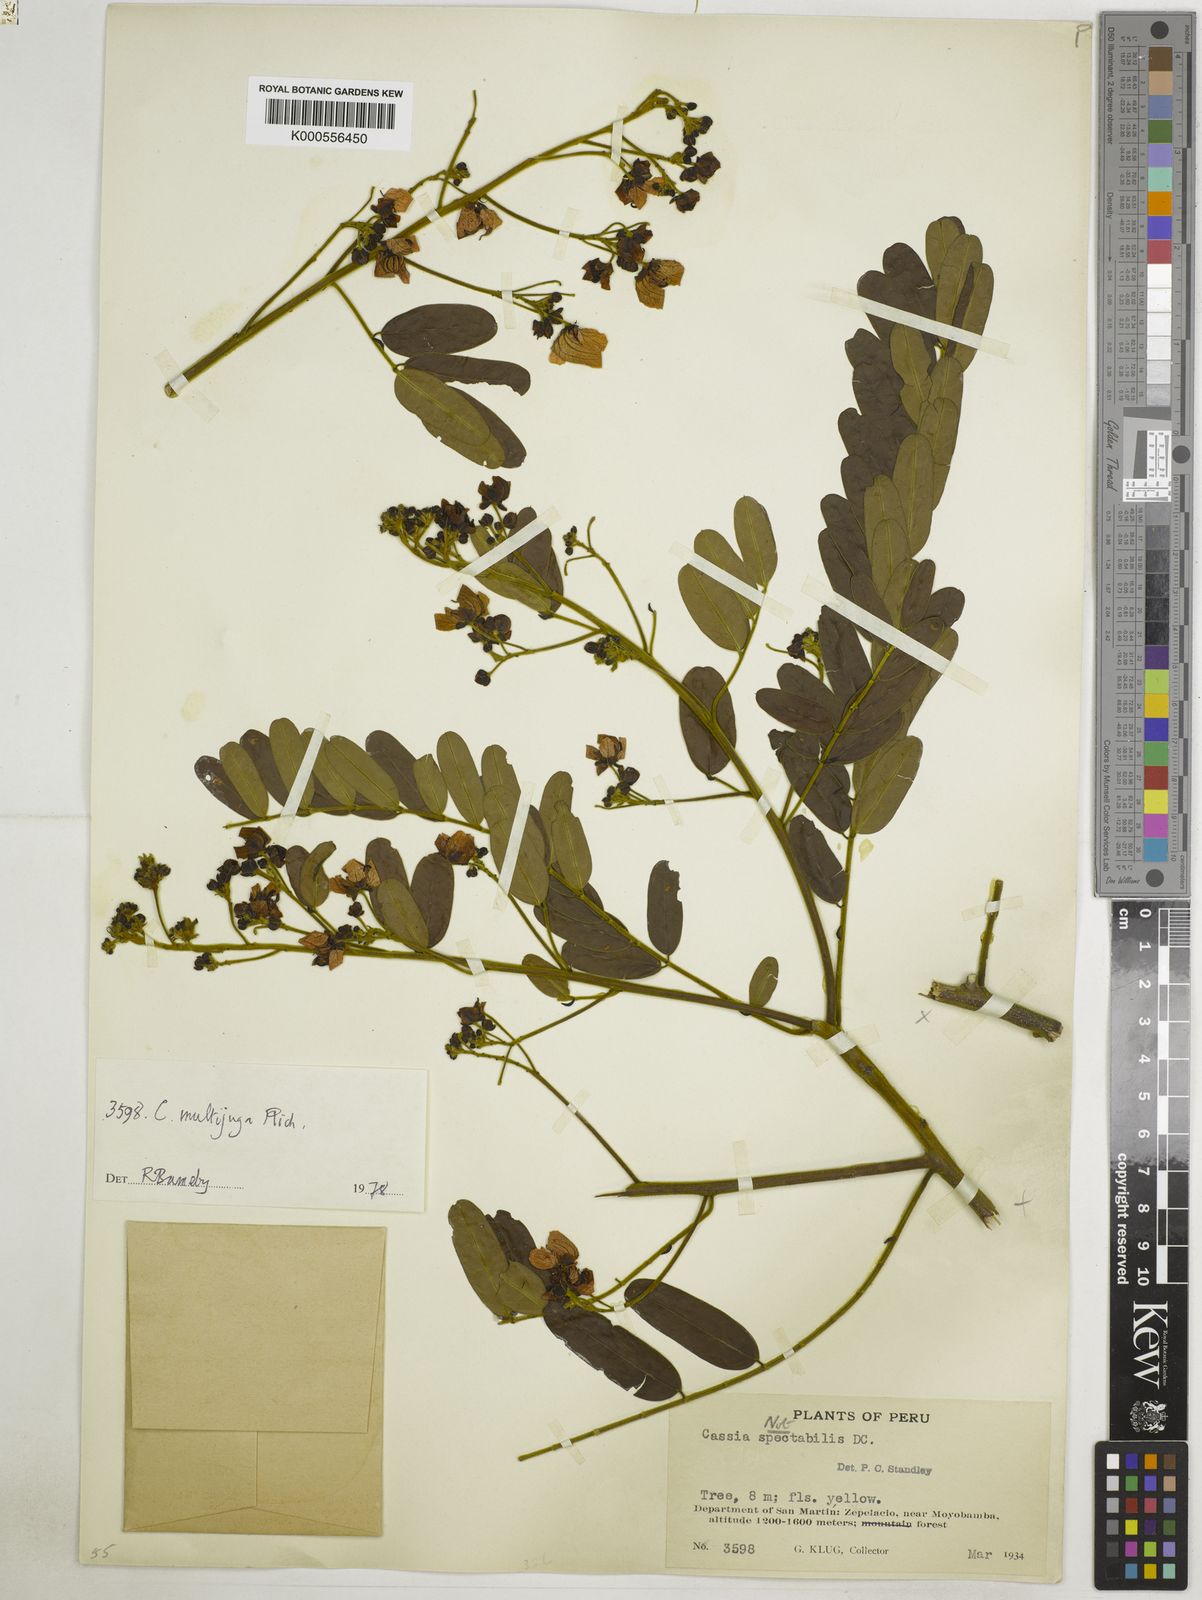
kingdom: Plantae
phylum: Tracheophyta
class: Magnoliopsida
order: Fabales
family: Fabaceae
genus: Senna
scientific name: Senna multijuga
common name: False sicklepod
